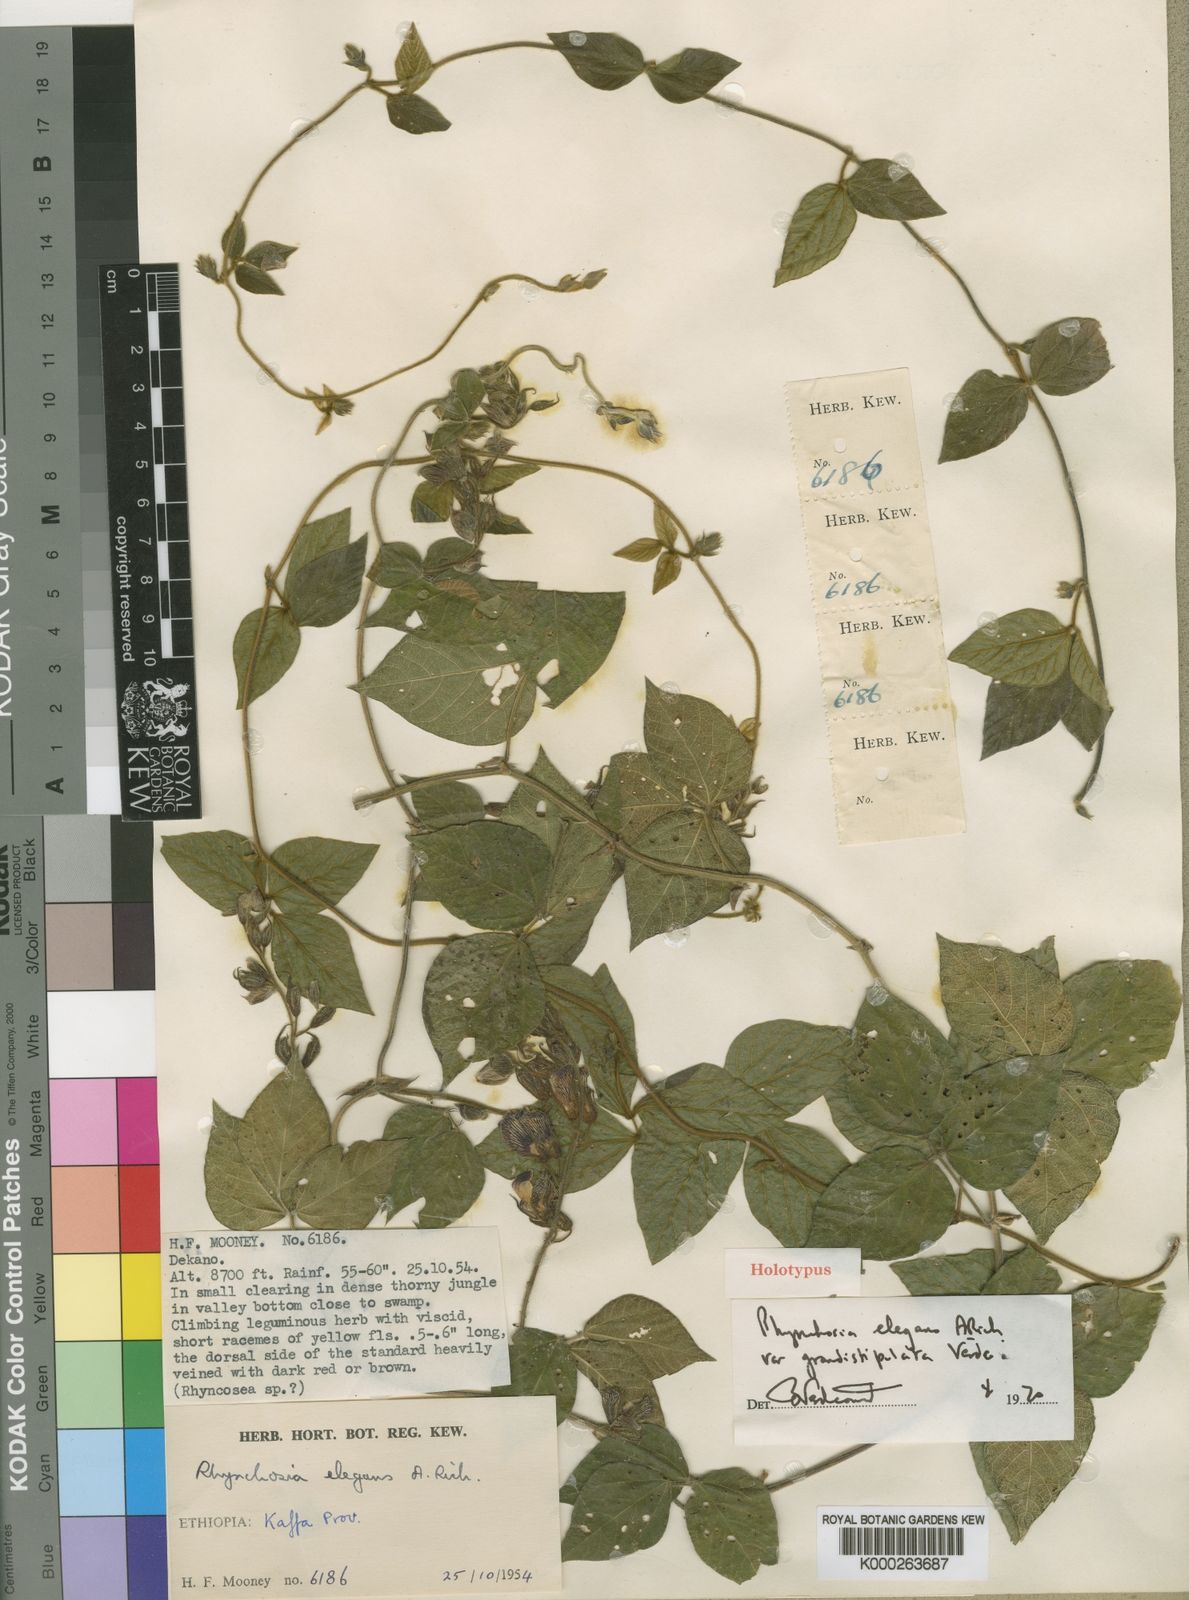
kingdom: Plantae
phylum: Tracheophyta
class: Magnoliopsida
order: Fabales
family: Fabaceae
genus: Rhynchosia
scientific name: Rhynchosia elegans
